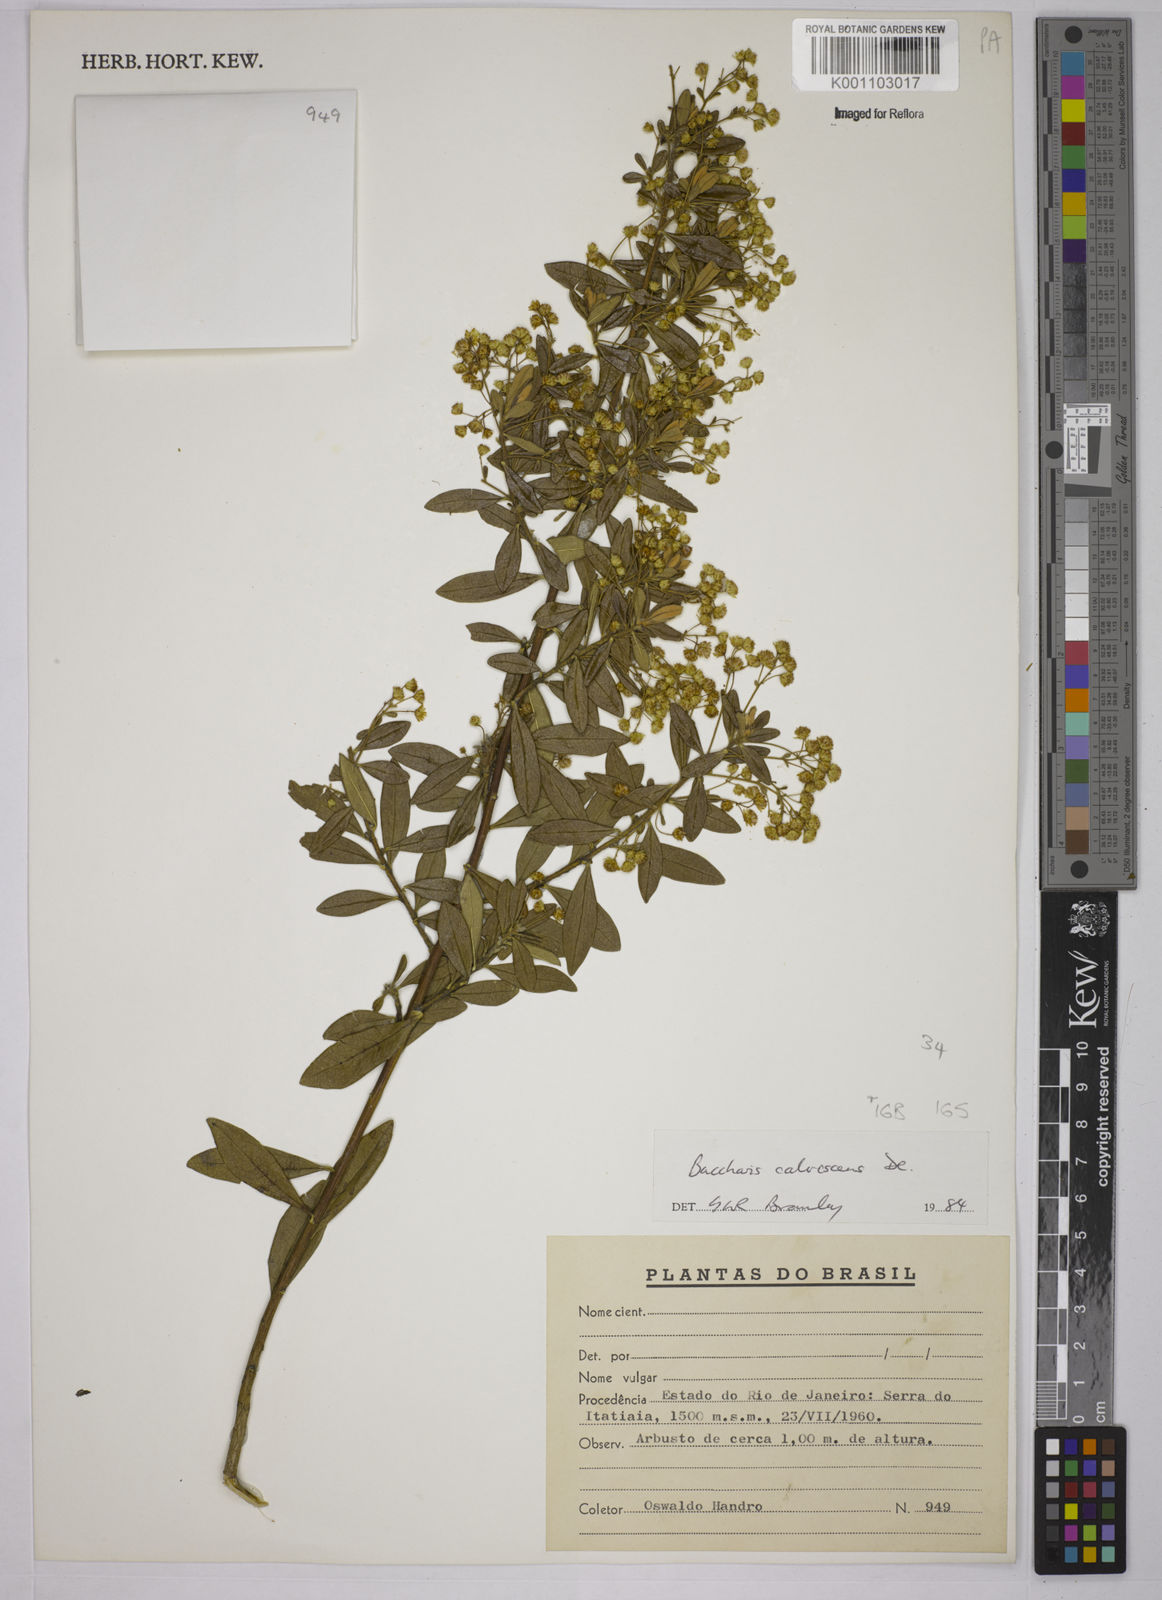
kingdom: Plantae
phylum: Tracheophyta
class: Magnoliopsida
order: Asterales
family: Asteraceae
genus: Baccharis
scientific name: Baccharis calvescens
